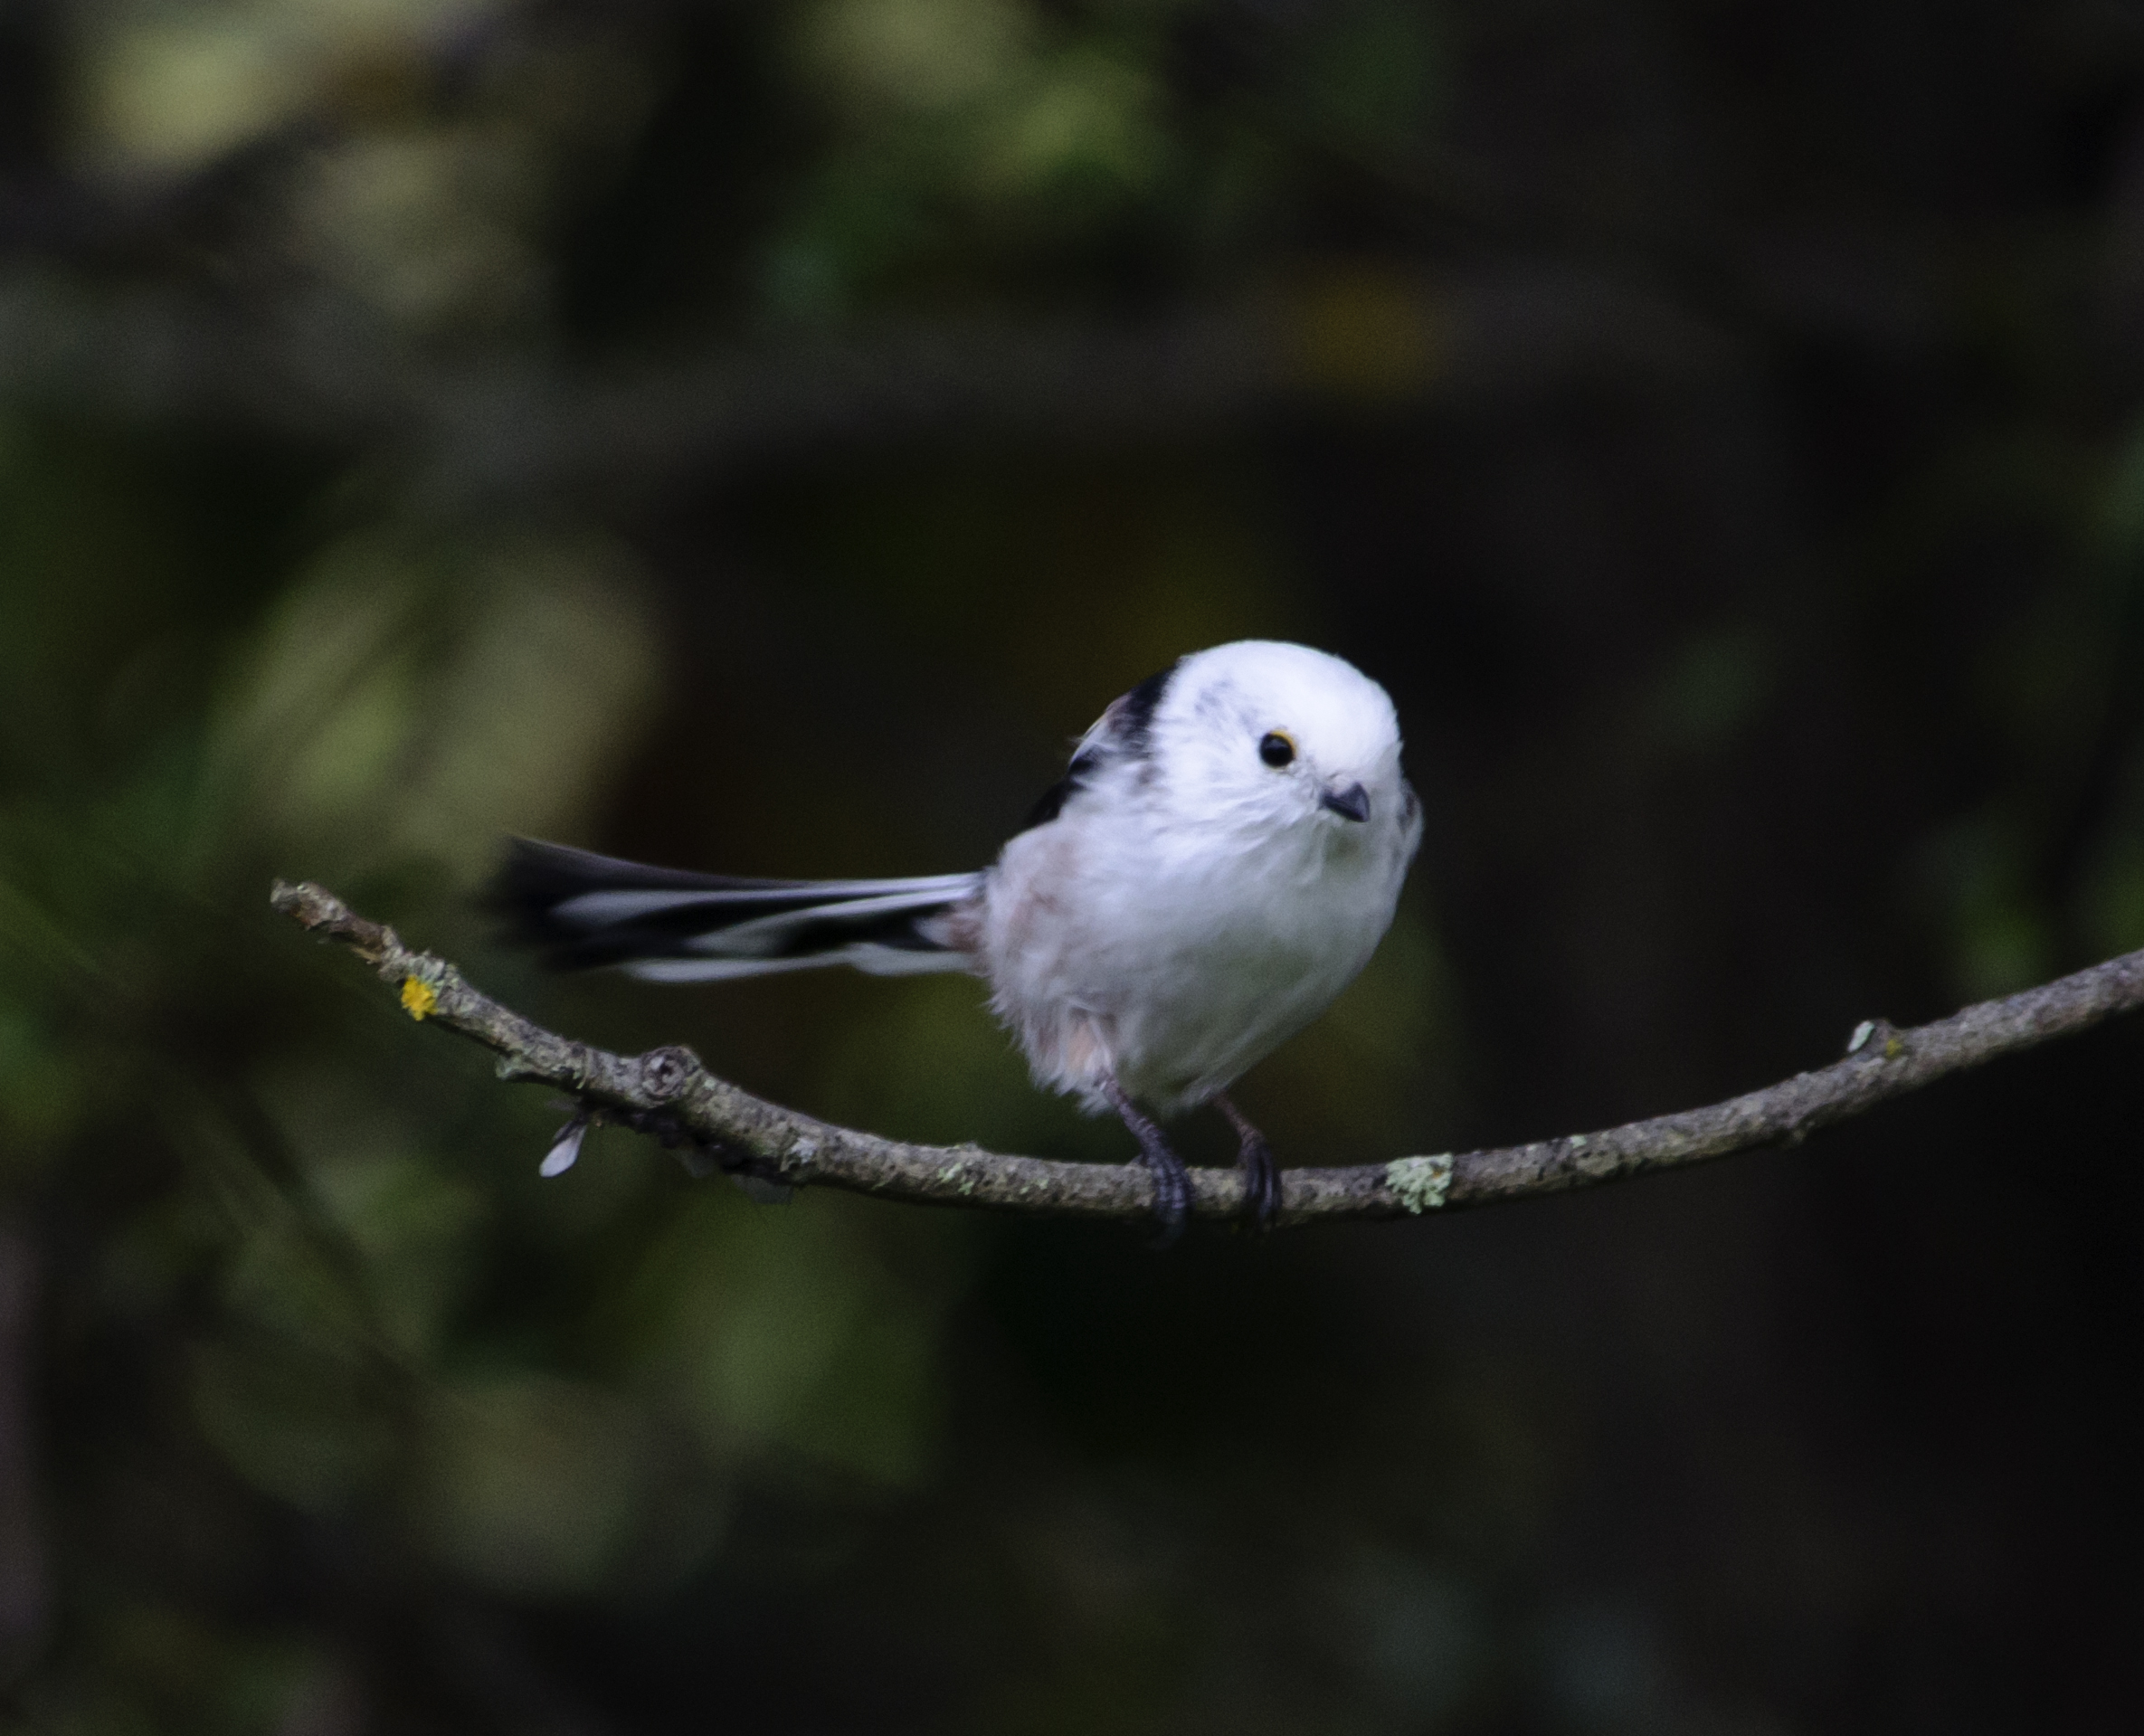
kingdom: Animalia
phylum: Chordata
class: Aves
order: Passeriformes
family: Aegithalidae
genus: Aegithalos
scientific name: Aegithalos caudatus
